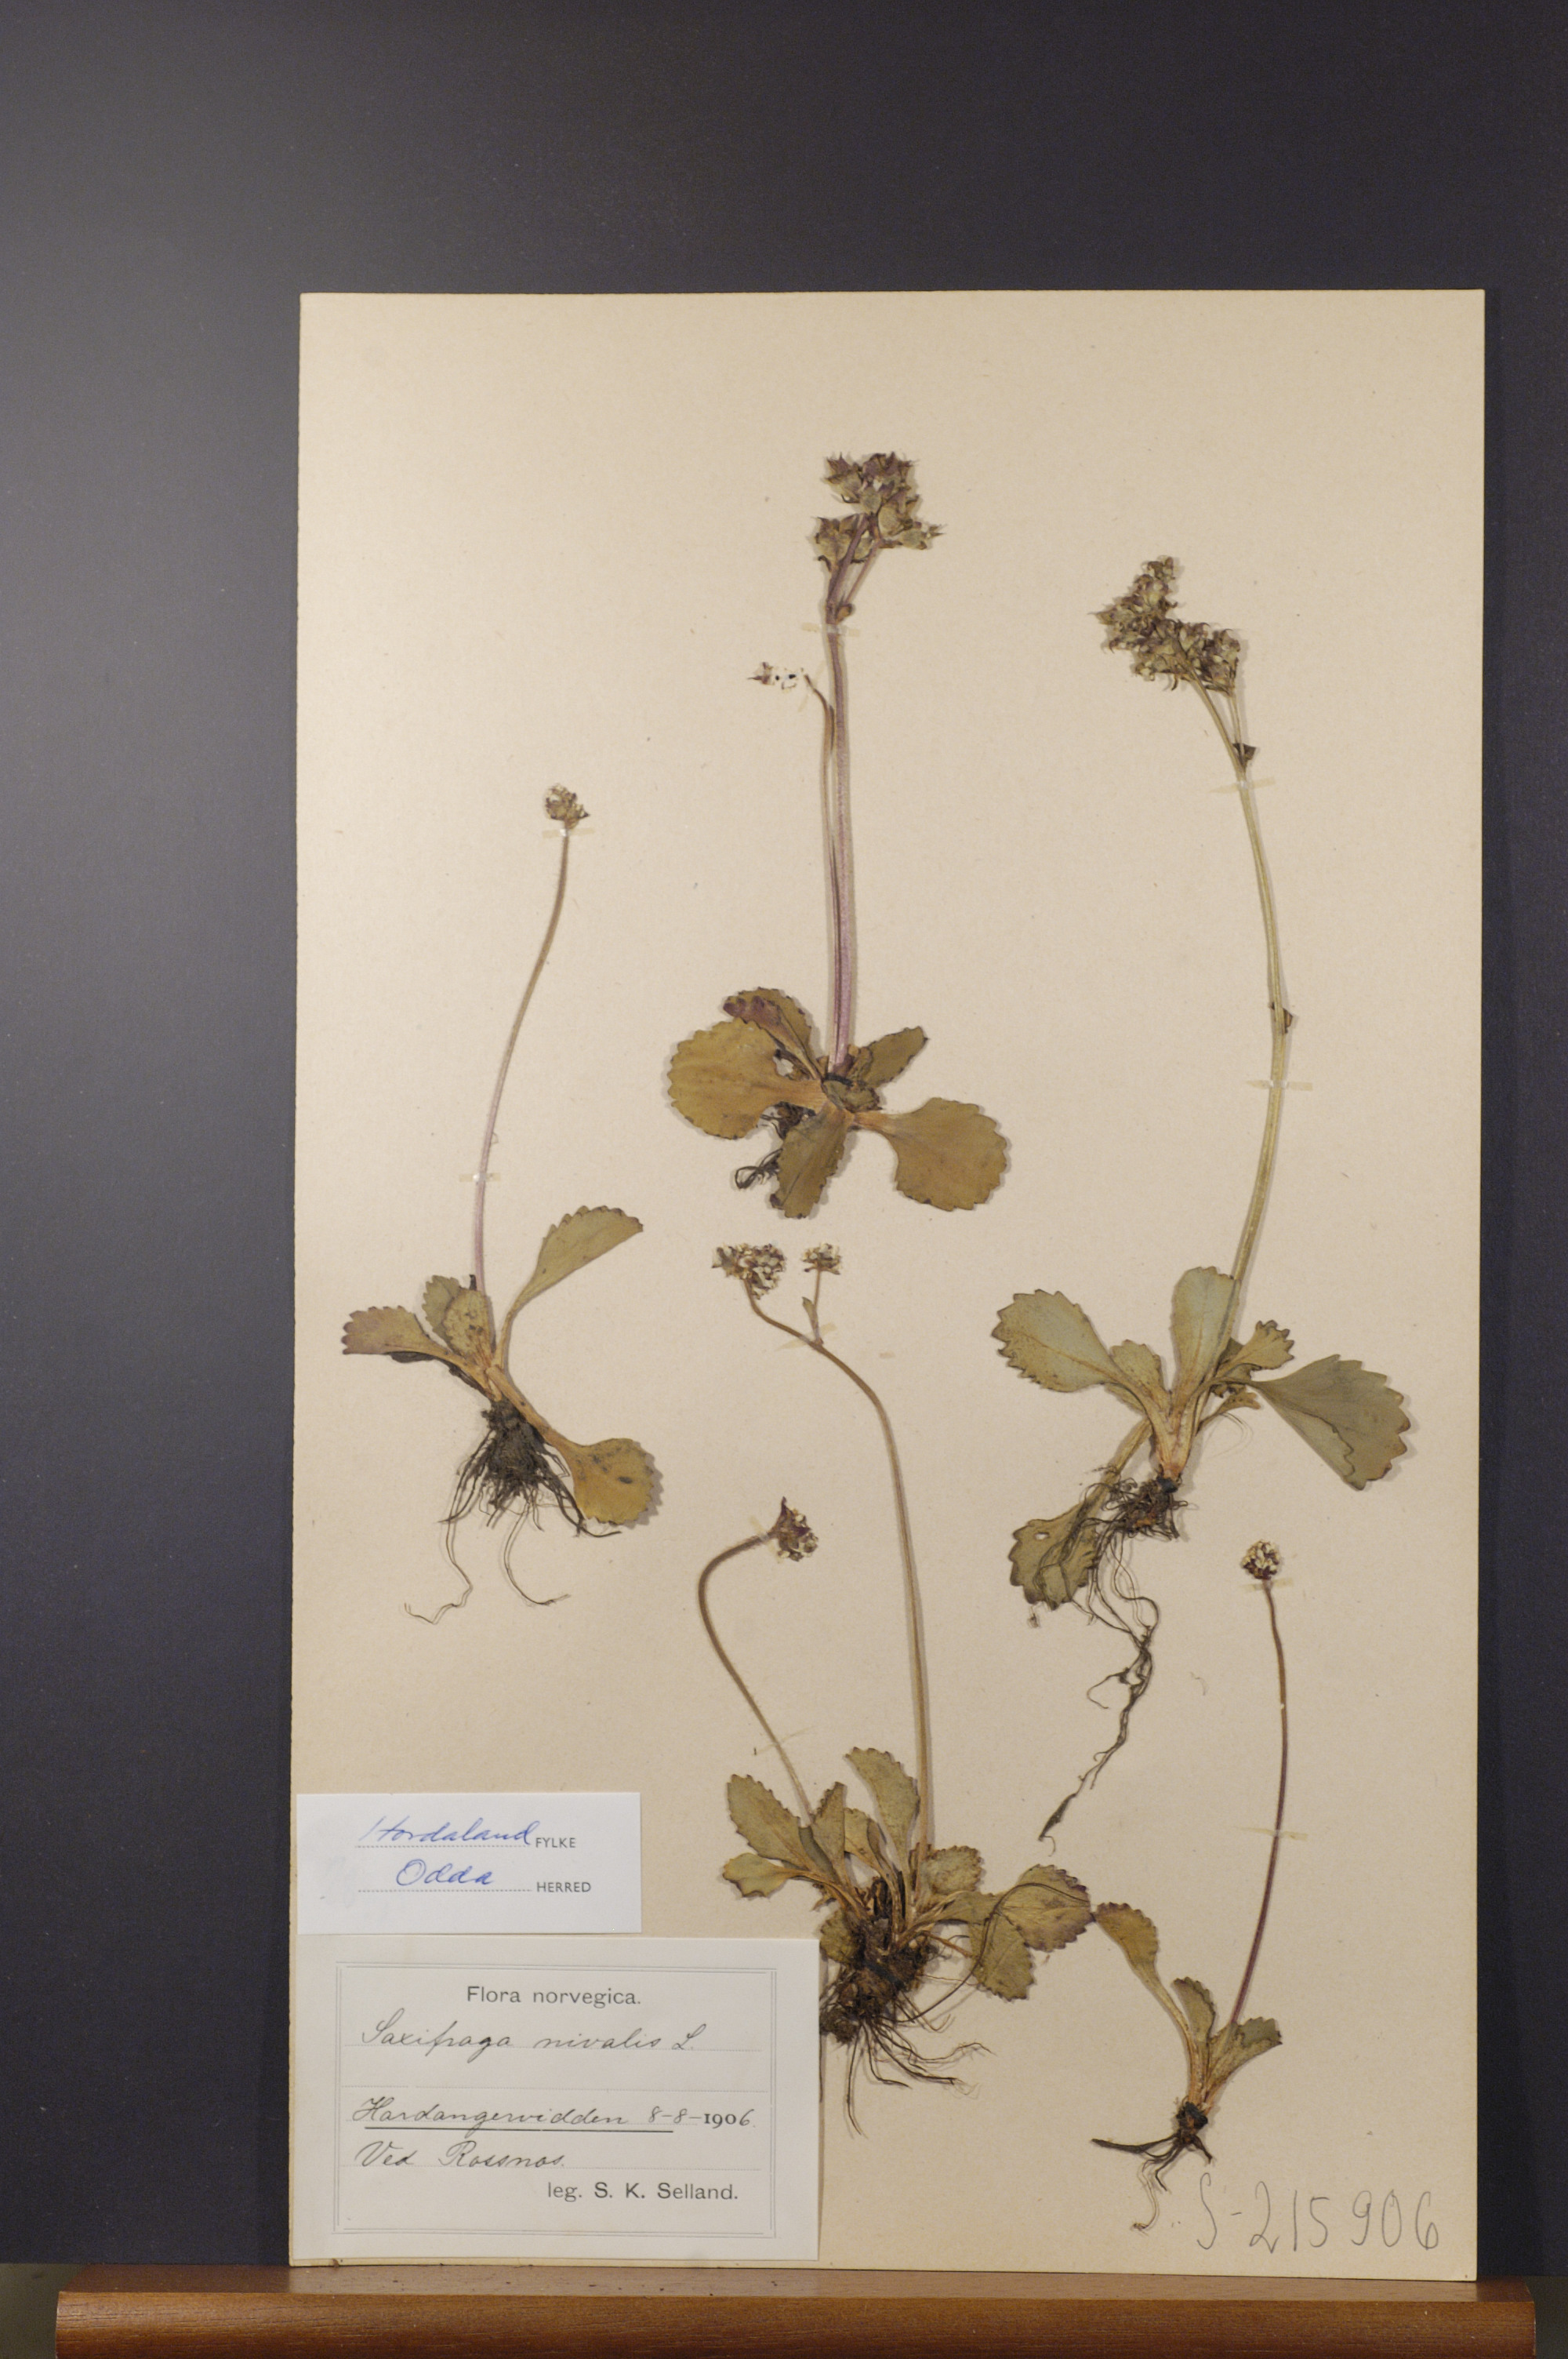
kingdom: Plantae
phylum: Tracheophyta
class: Magnoliopsida
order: Saxifragales
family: Saxifragaceae
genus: Micranthes
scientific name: Micranthes nivalis
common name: Alpine saxifrage
